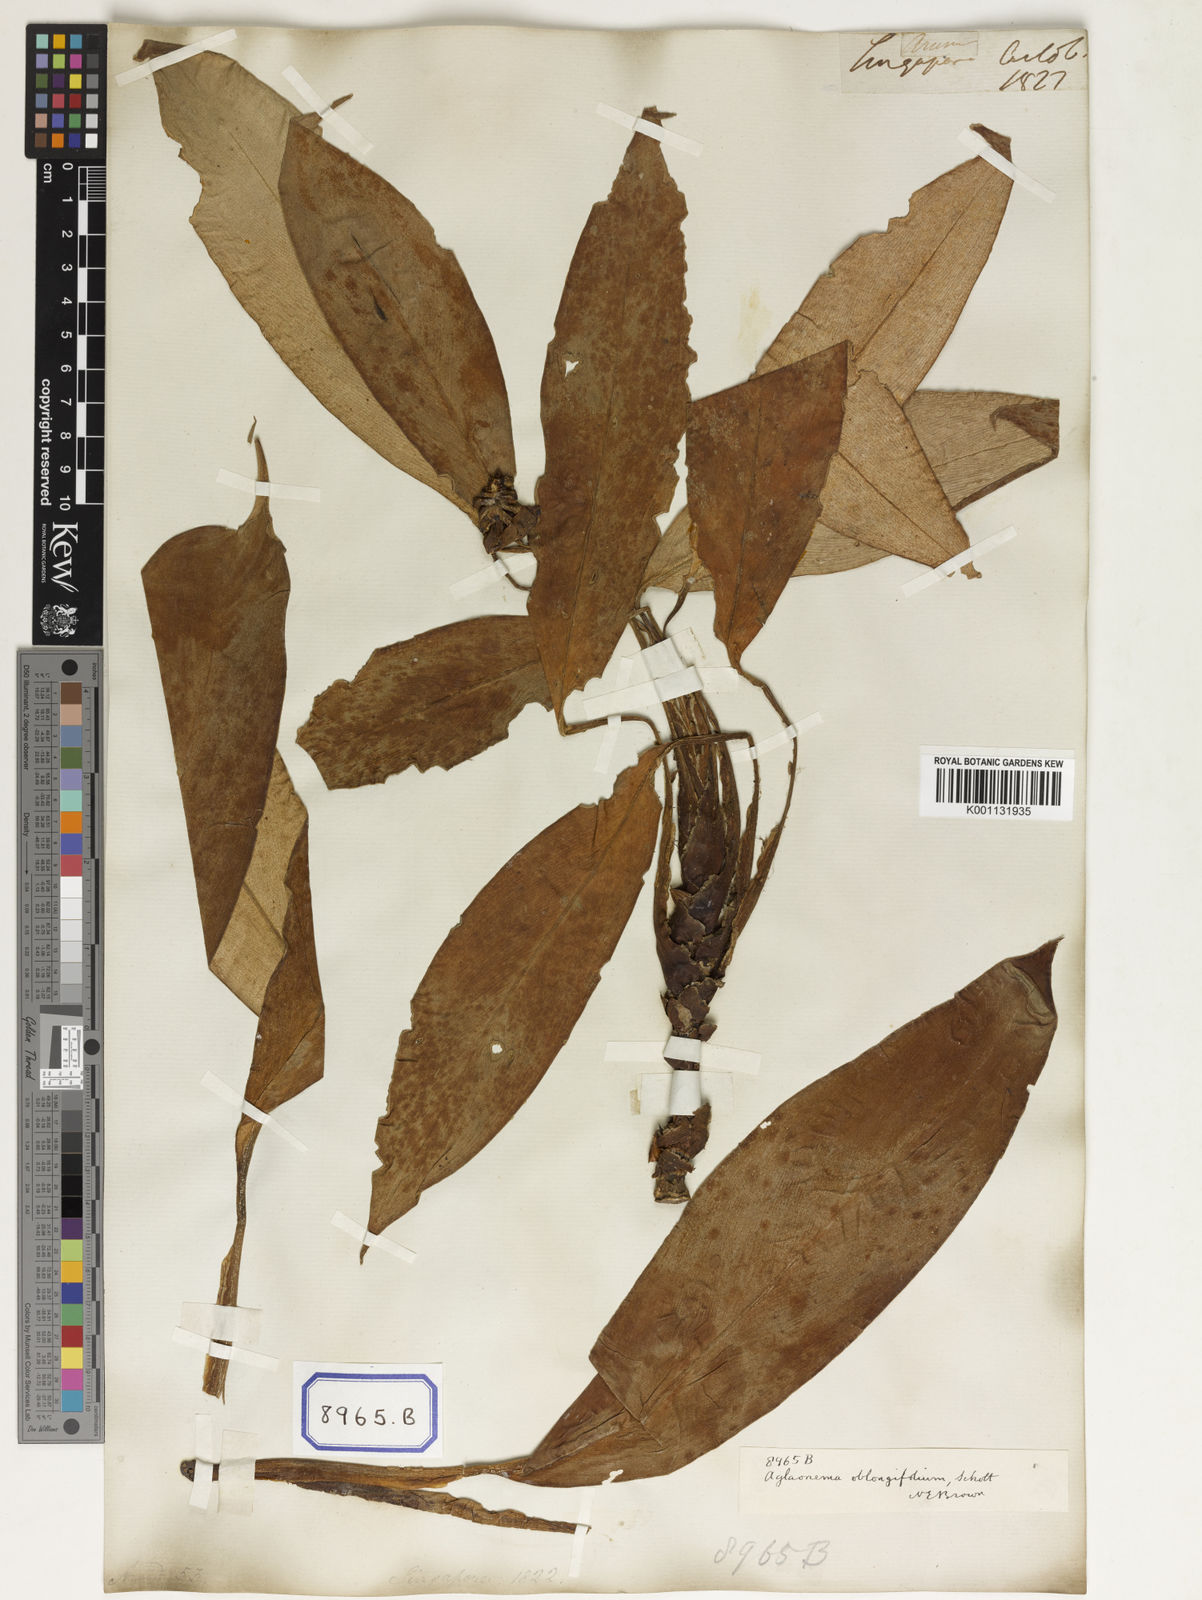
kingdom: Plantae
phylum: Tracheophyta
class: Liliopsida
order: Alismatales
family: Araceae
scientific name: Araceae
